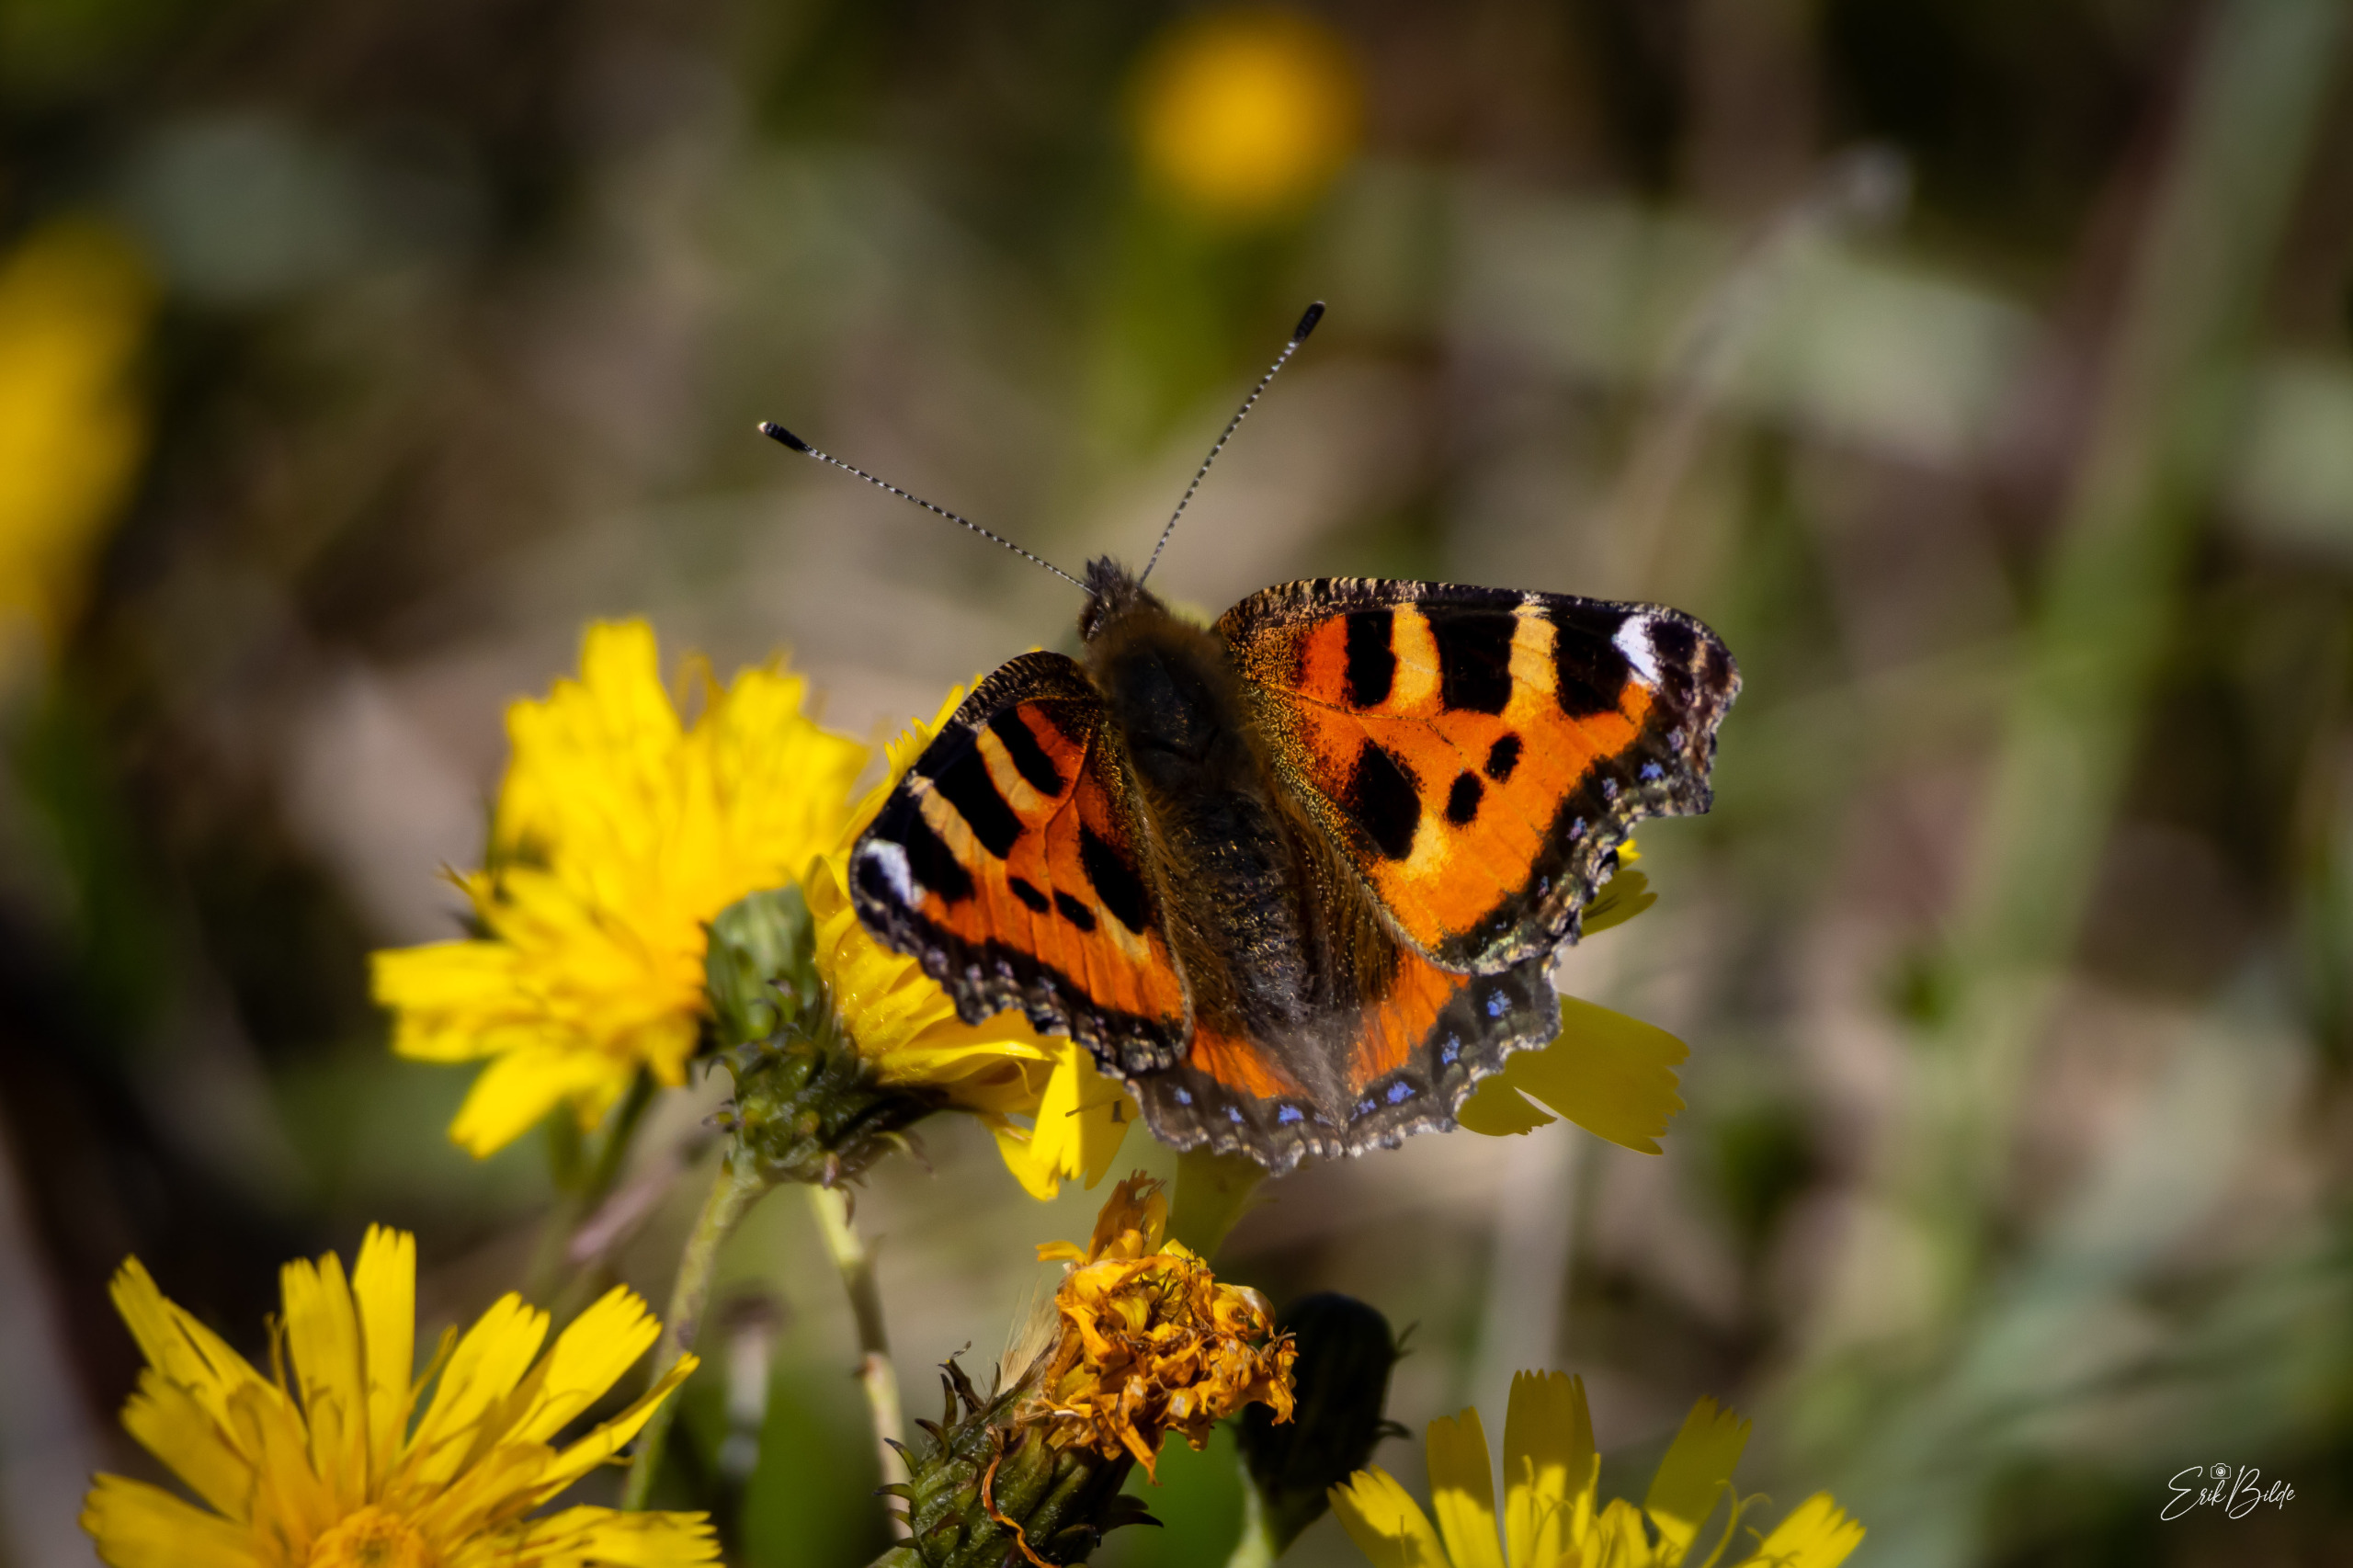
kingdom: Animalia
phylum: Arthropoda
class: Insecta
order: Lepidoptera
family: Nymphalidae
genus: Aglais
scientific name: Aglais urticae
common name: Nældens takvinge
